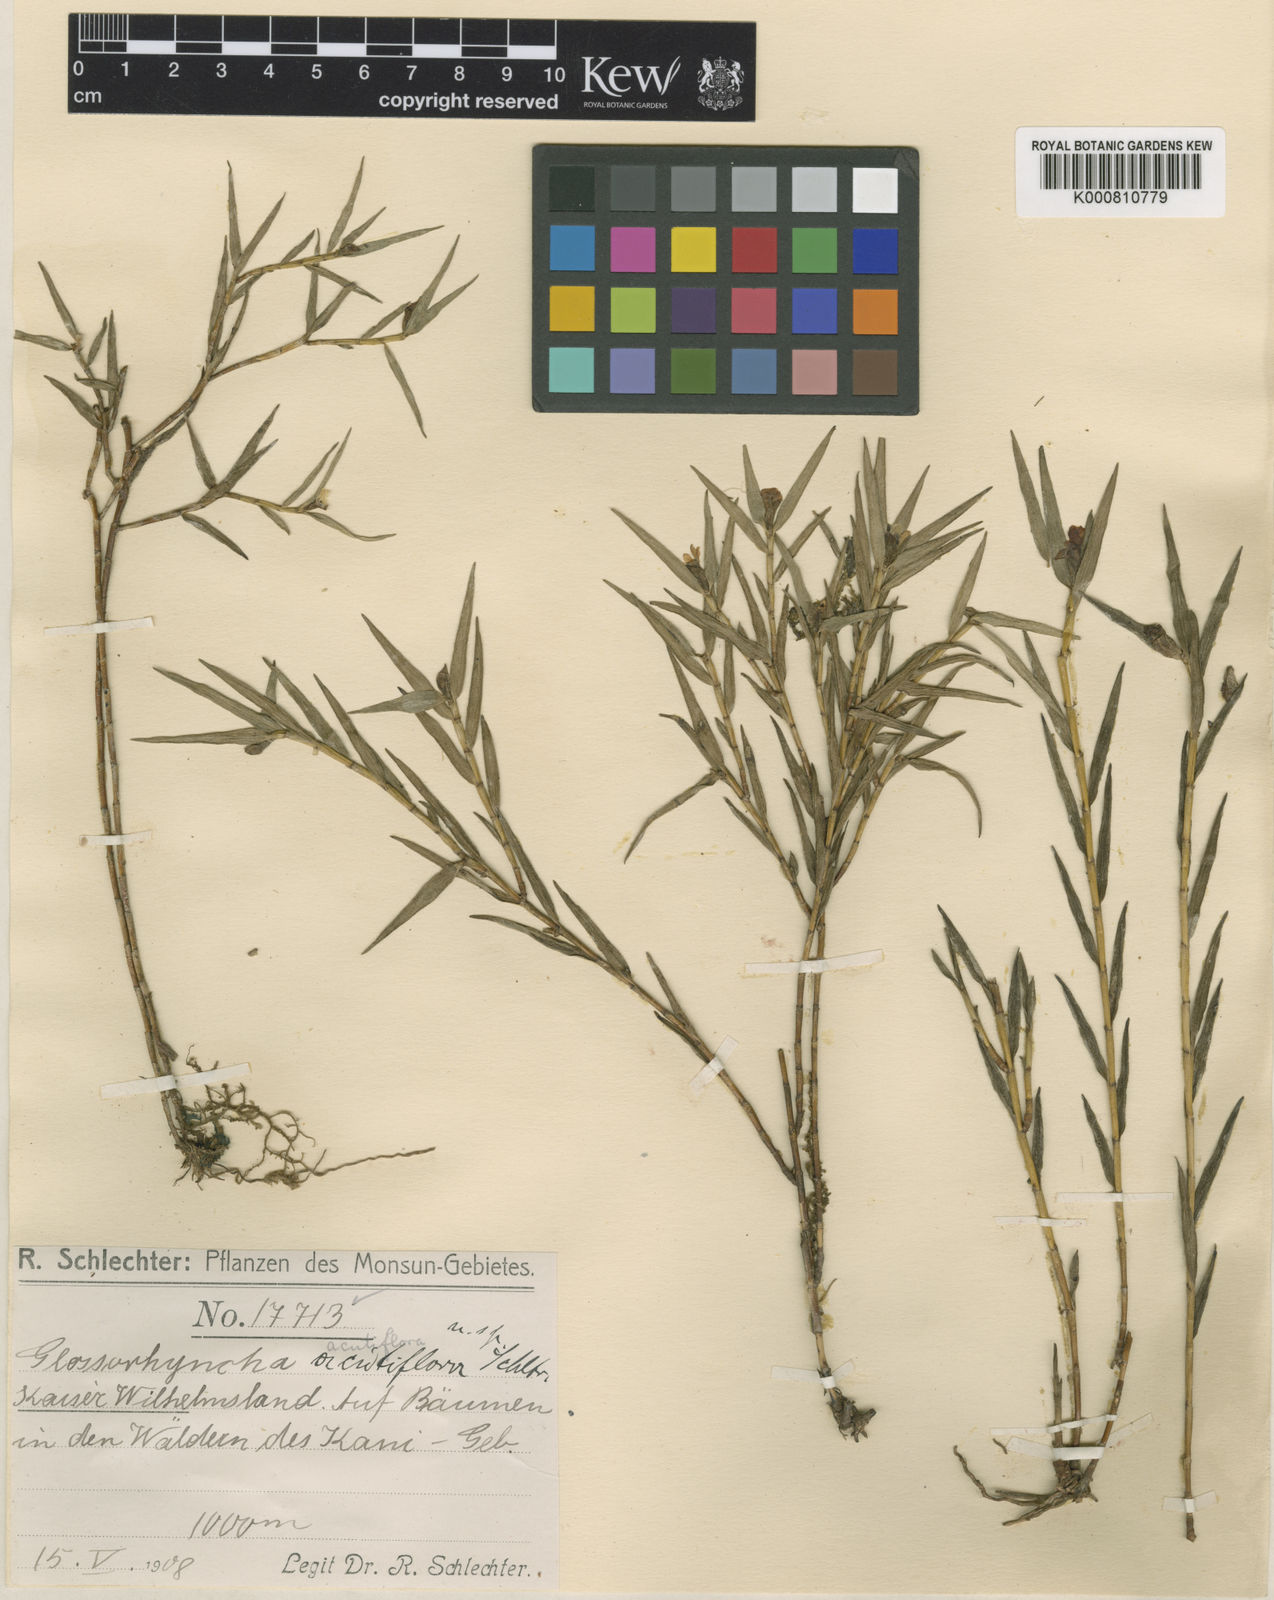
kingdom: Plantae
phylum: Tracheophyta
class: Liliopsida
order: Asparagales
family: Orchidaceae
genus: Glomera
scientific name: Glomera acutiflora
